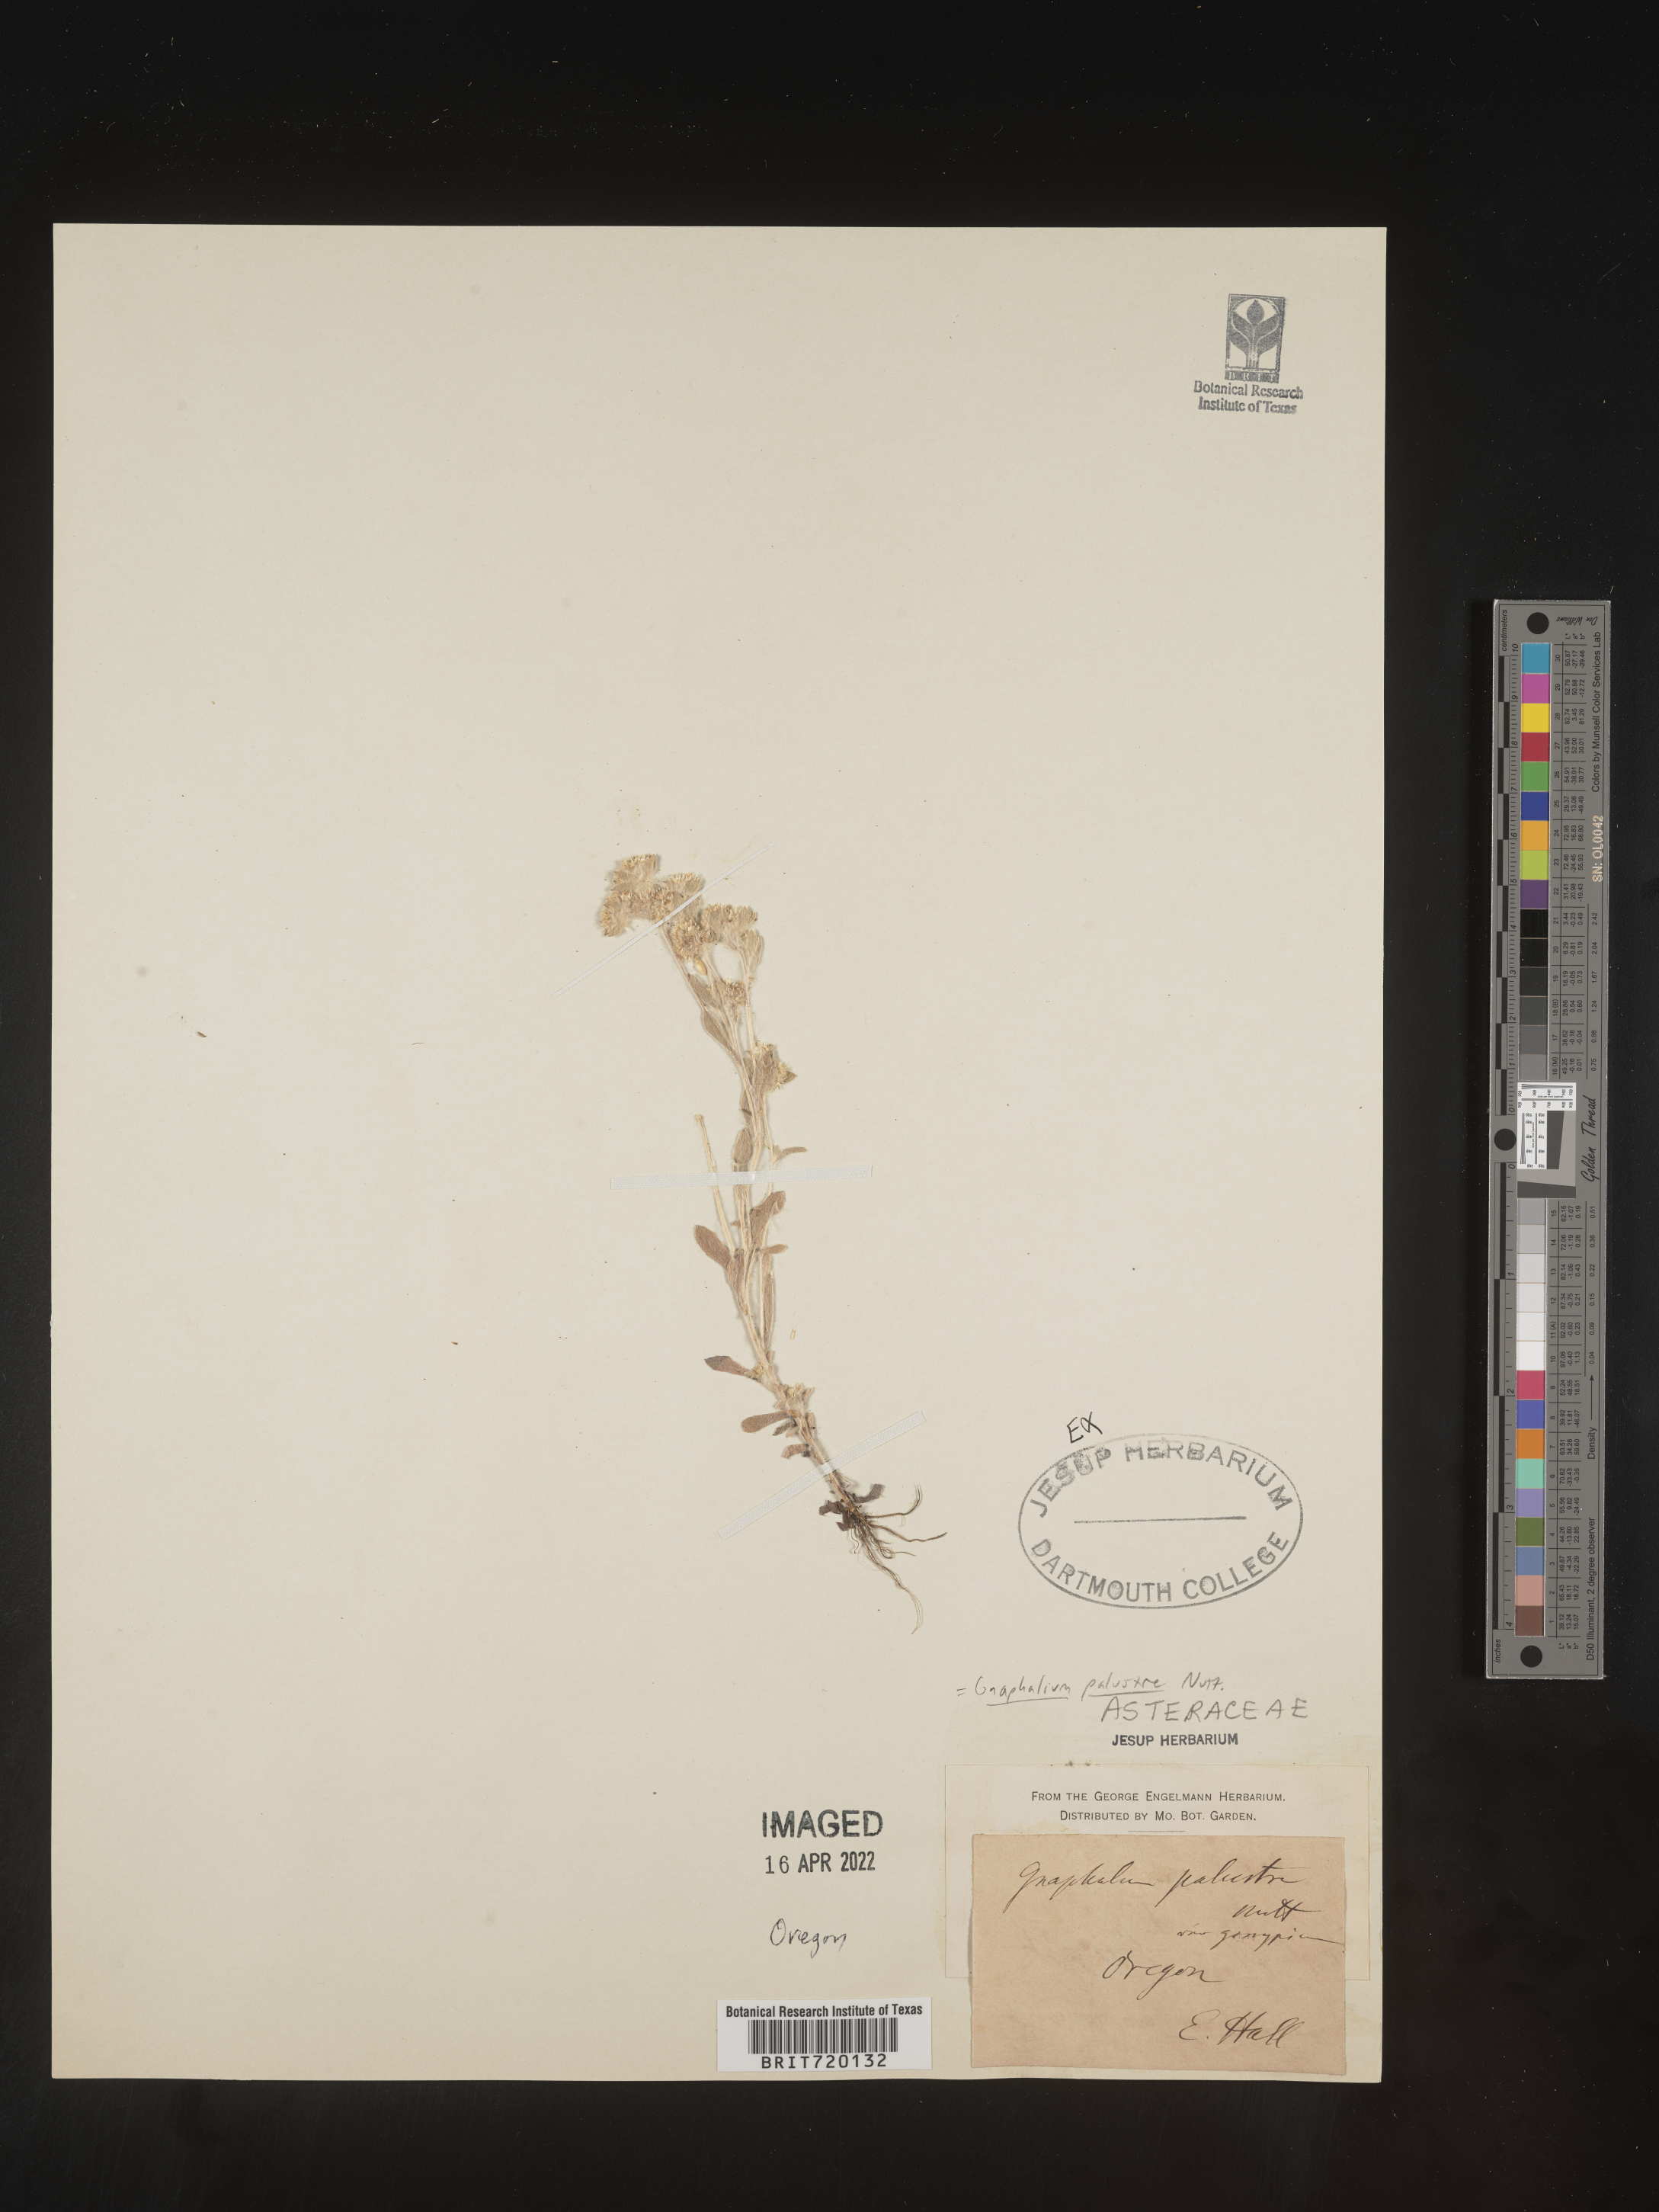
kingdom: Plantae
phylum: Tracheophyta
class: Magnoliopsida
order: Asterales
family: Asteraceae
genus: Gnaphalium
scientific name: Gnaphalium palustre
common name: Western marsh cudweed
